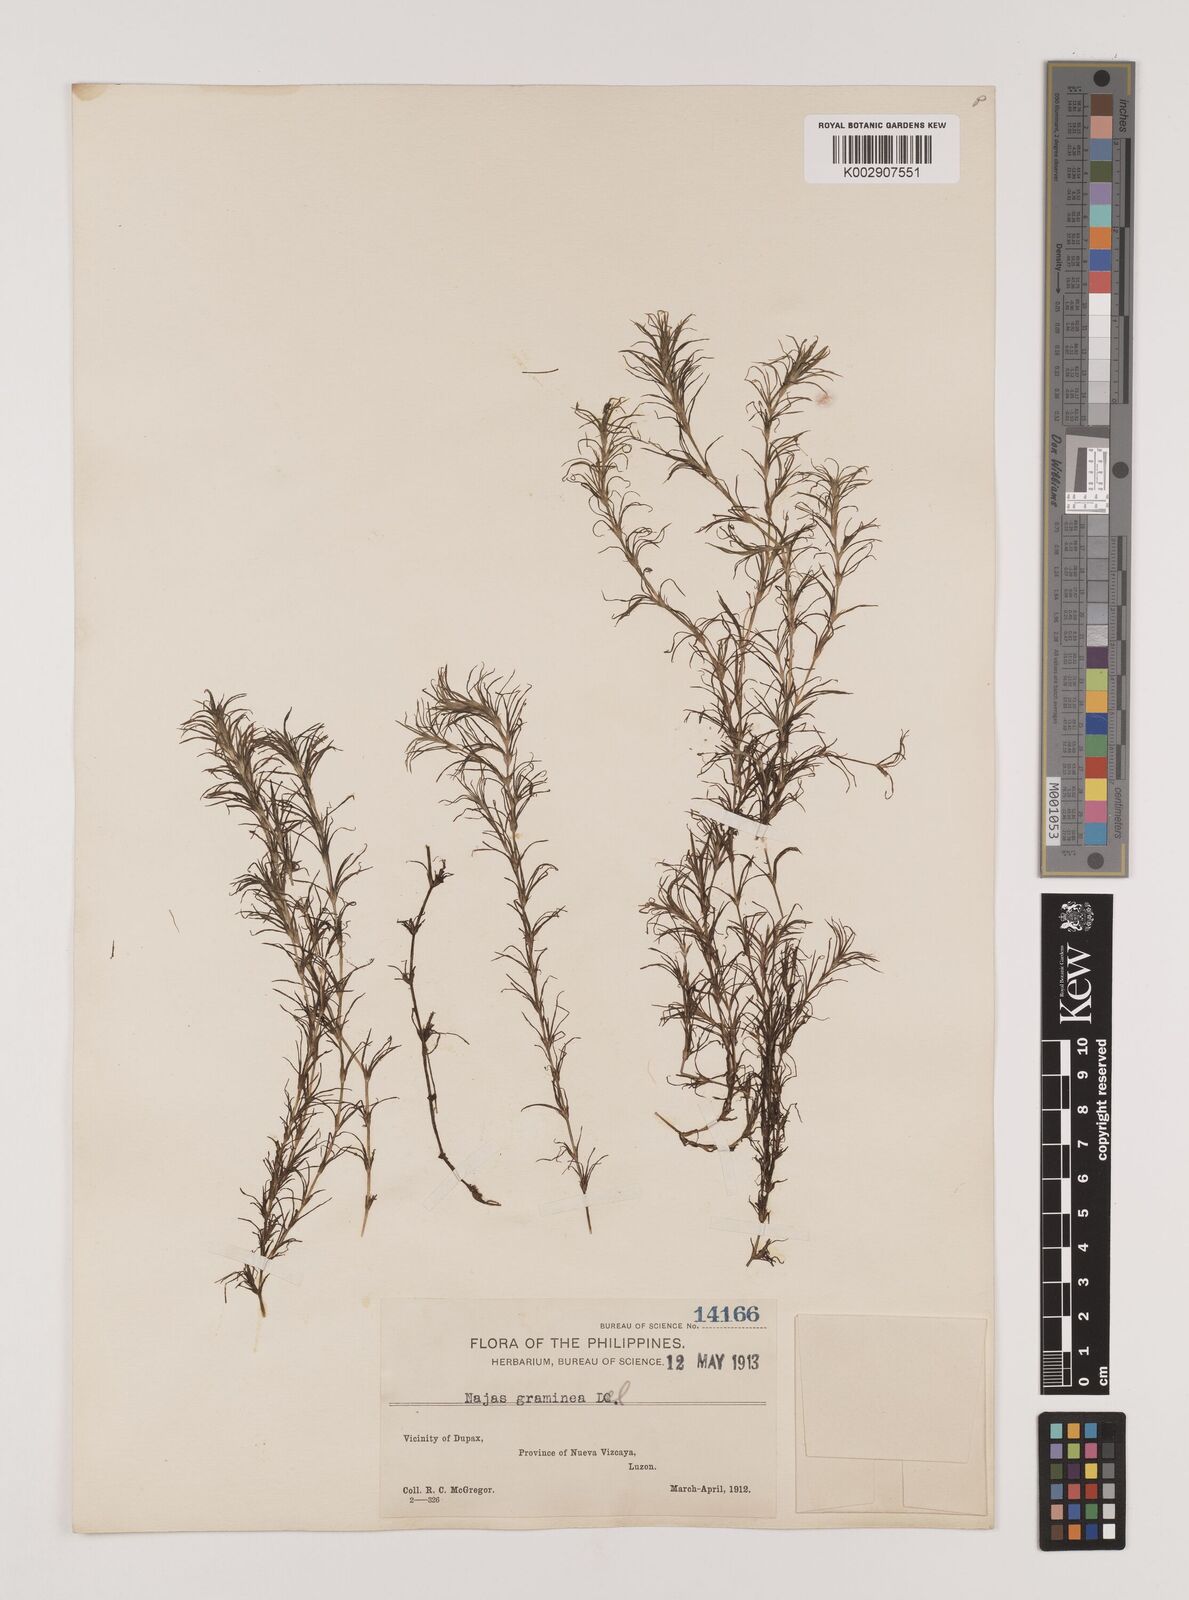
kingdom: Plantae
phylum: Tracheophyta
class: Liliopsida
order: Alismatales
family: Hydrocharitaceae
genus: Najas
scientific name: Najas graminea
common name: Ricefield waternymph
